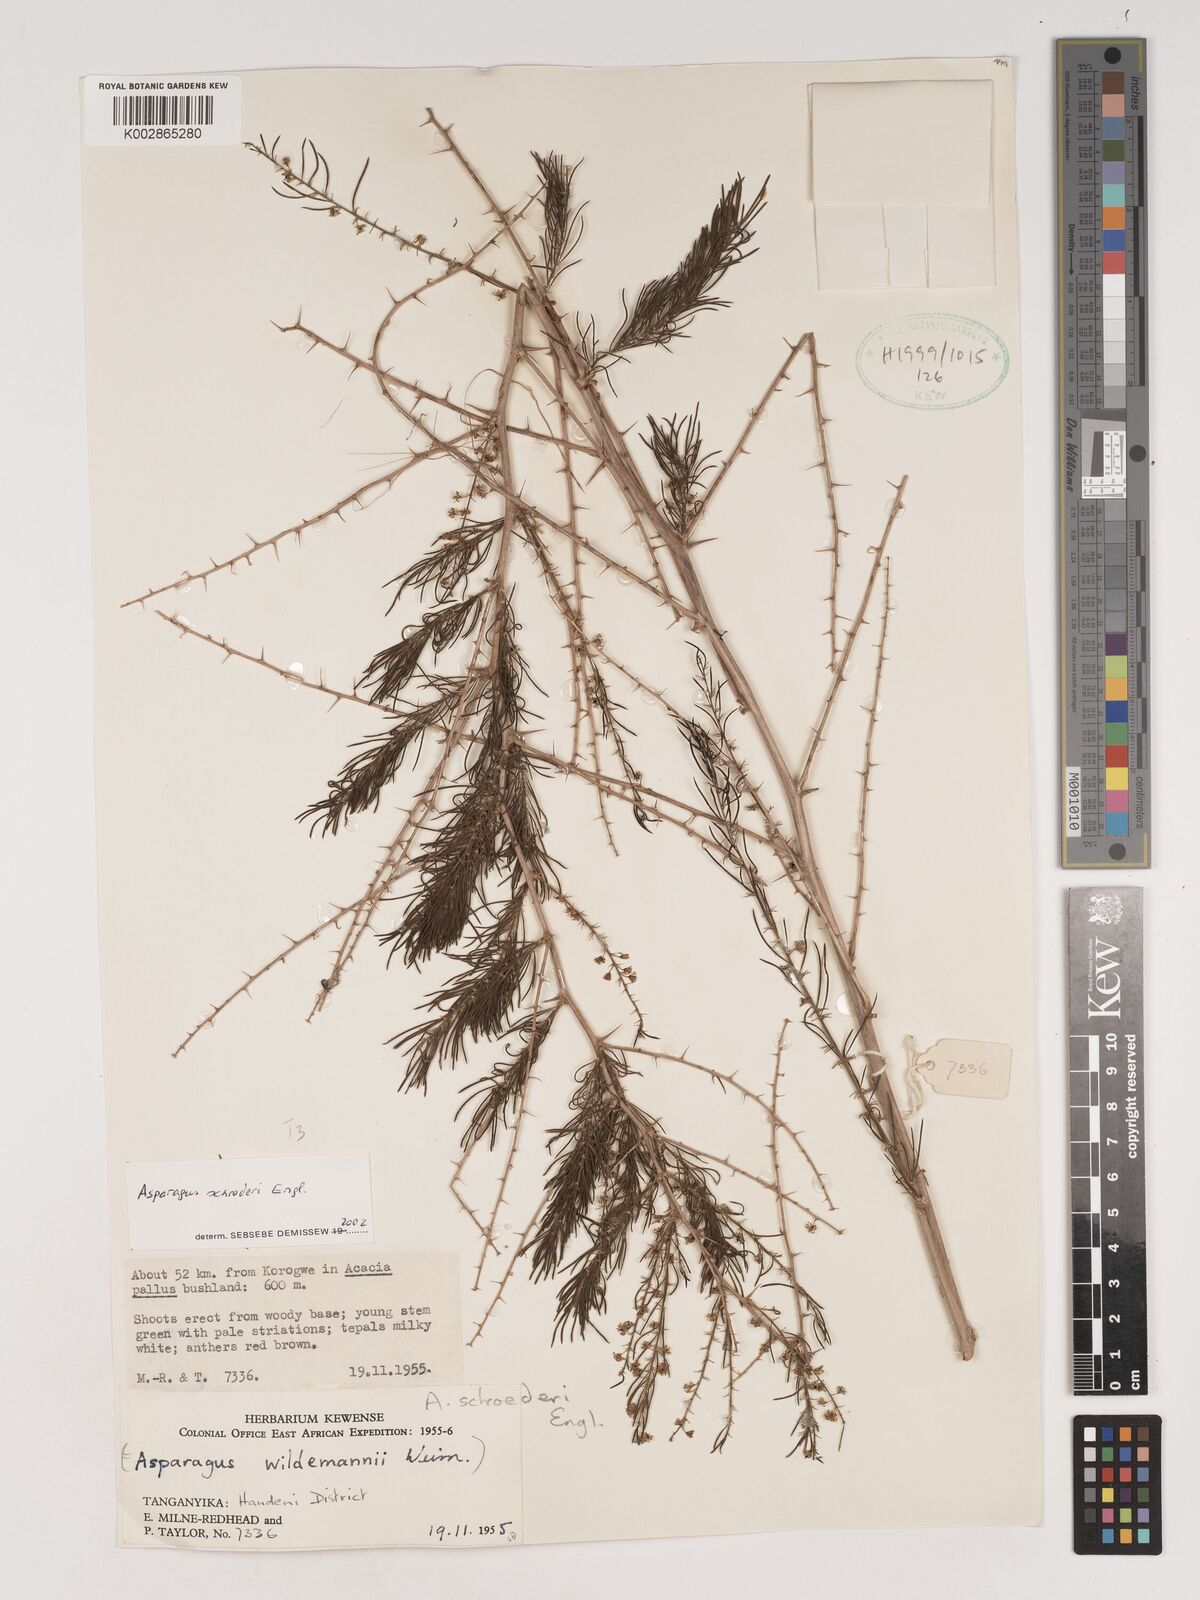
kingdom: Plantae
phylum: Tracheophyta
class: Liliopsida
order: Asparagales
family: Asparagaceae
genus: Asparagus
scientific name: Asparagus schroederi
